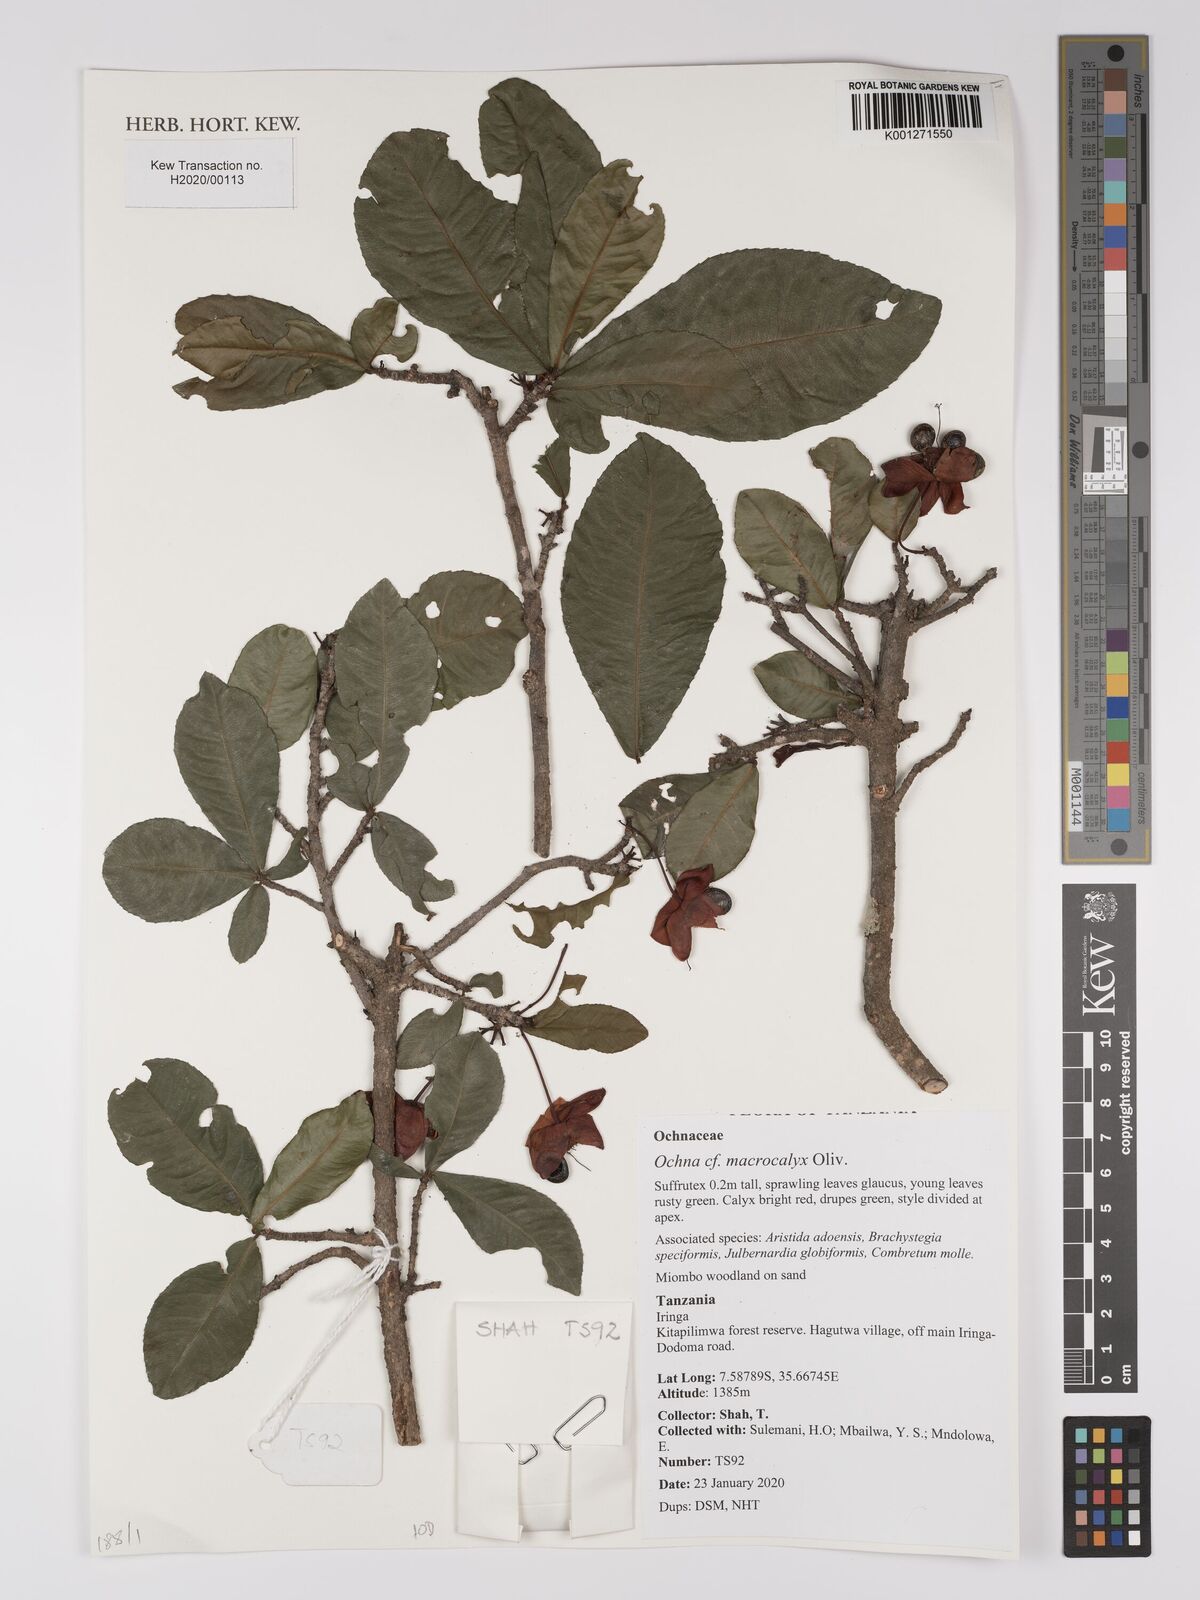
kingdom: Plantae
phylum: Tracheophyta
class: Magnoliopsida
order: Malpighiales
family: Ochnaceae
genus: Ochna
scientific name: Ochna macrocalyx
